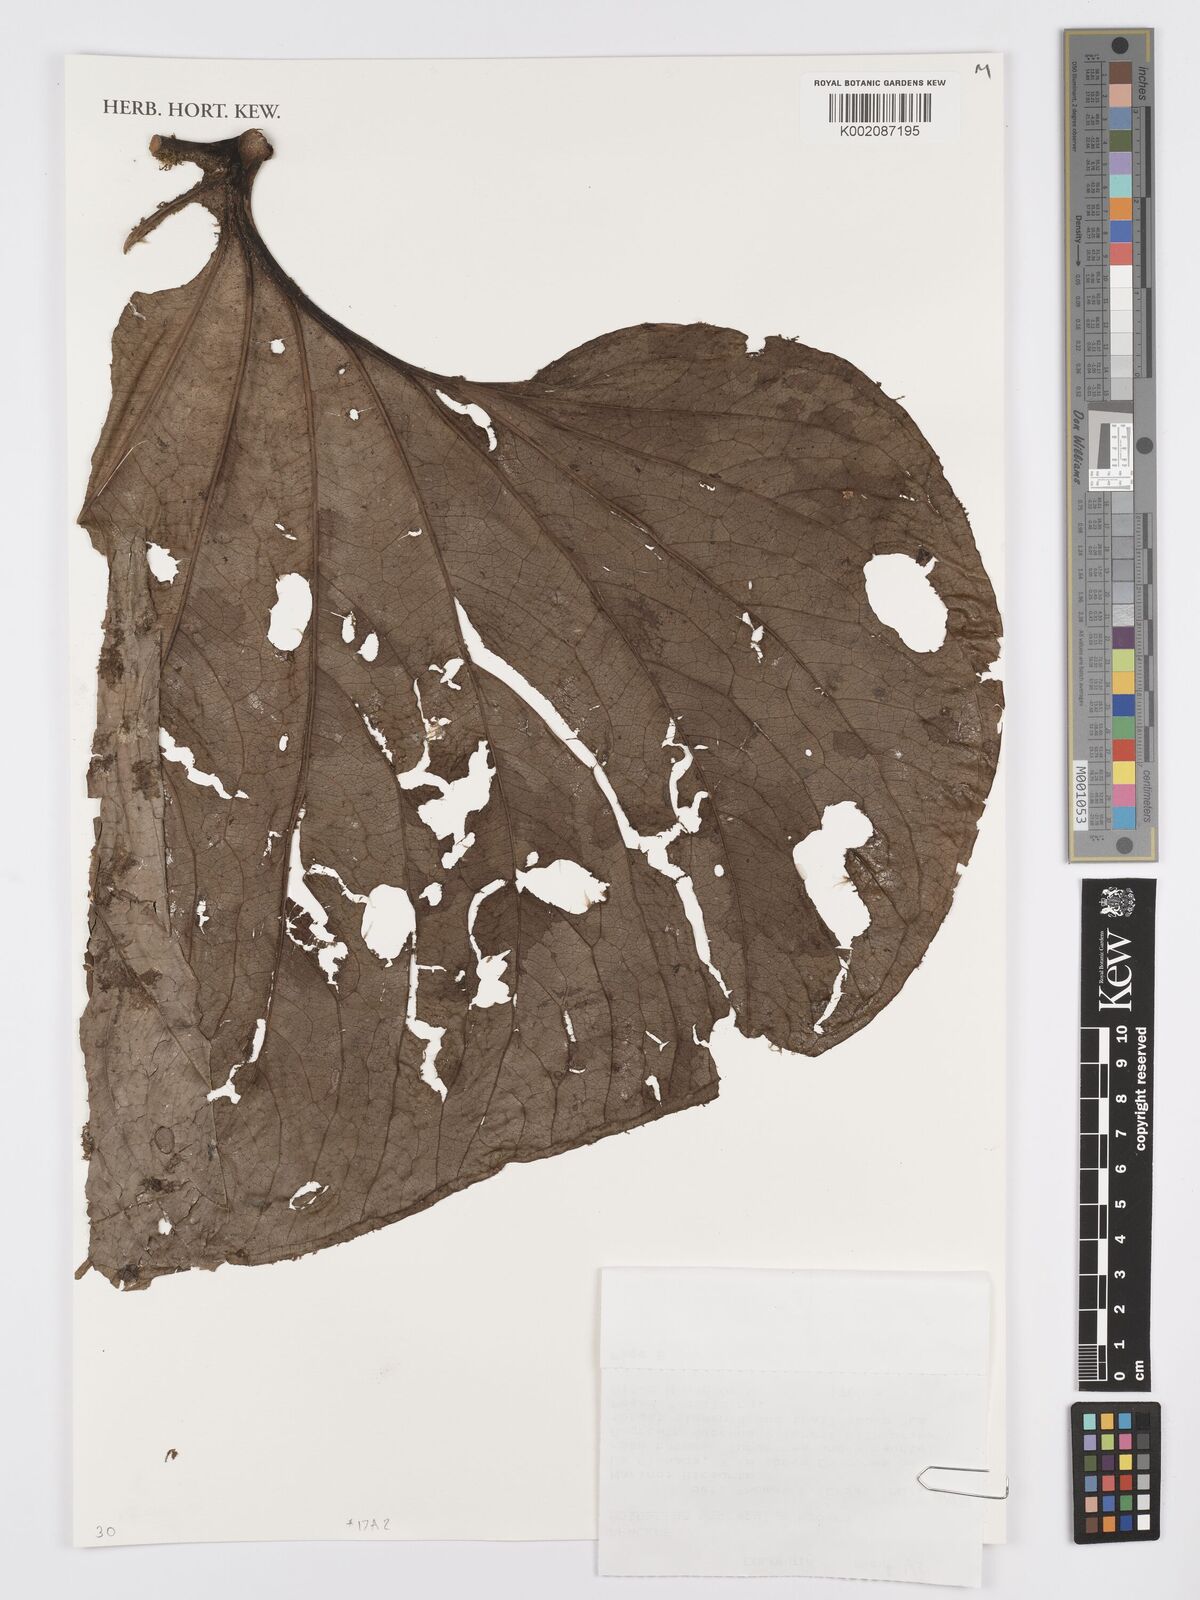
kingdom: Plantae
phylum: Tracheophyta
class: Liliopsida
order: Alismatales
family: Araceae
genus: Anthurium
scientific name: Anthurium umbraculum
